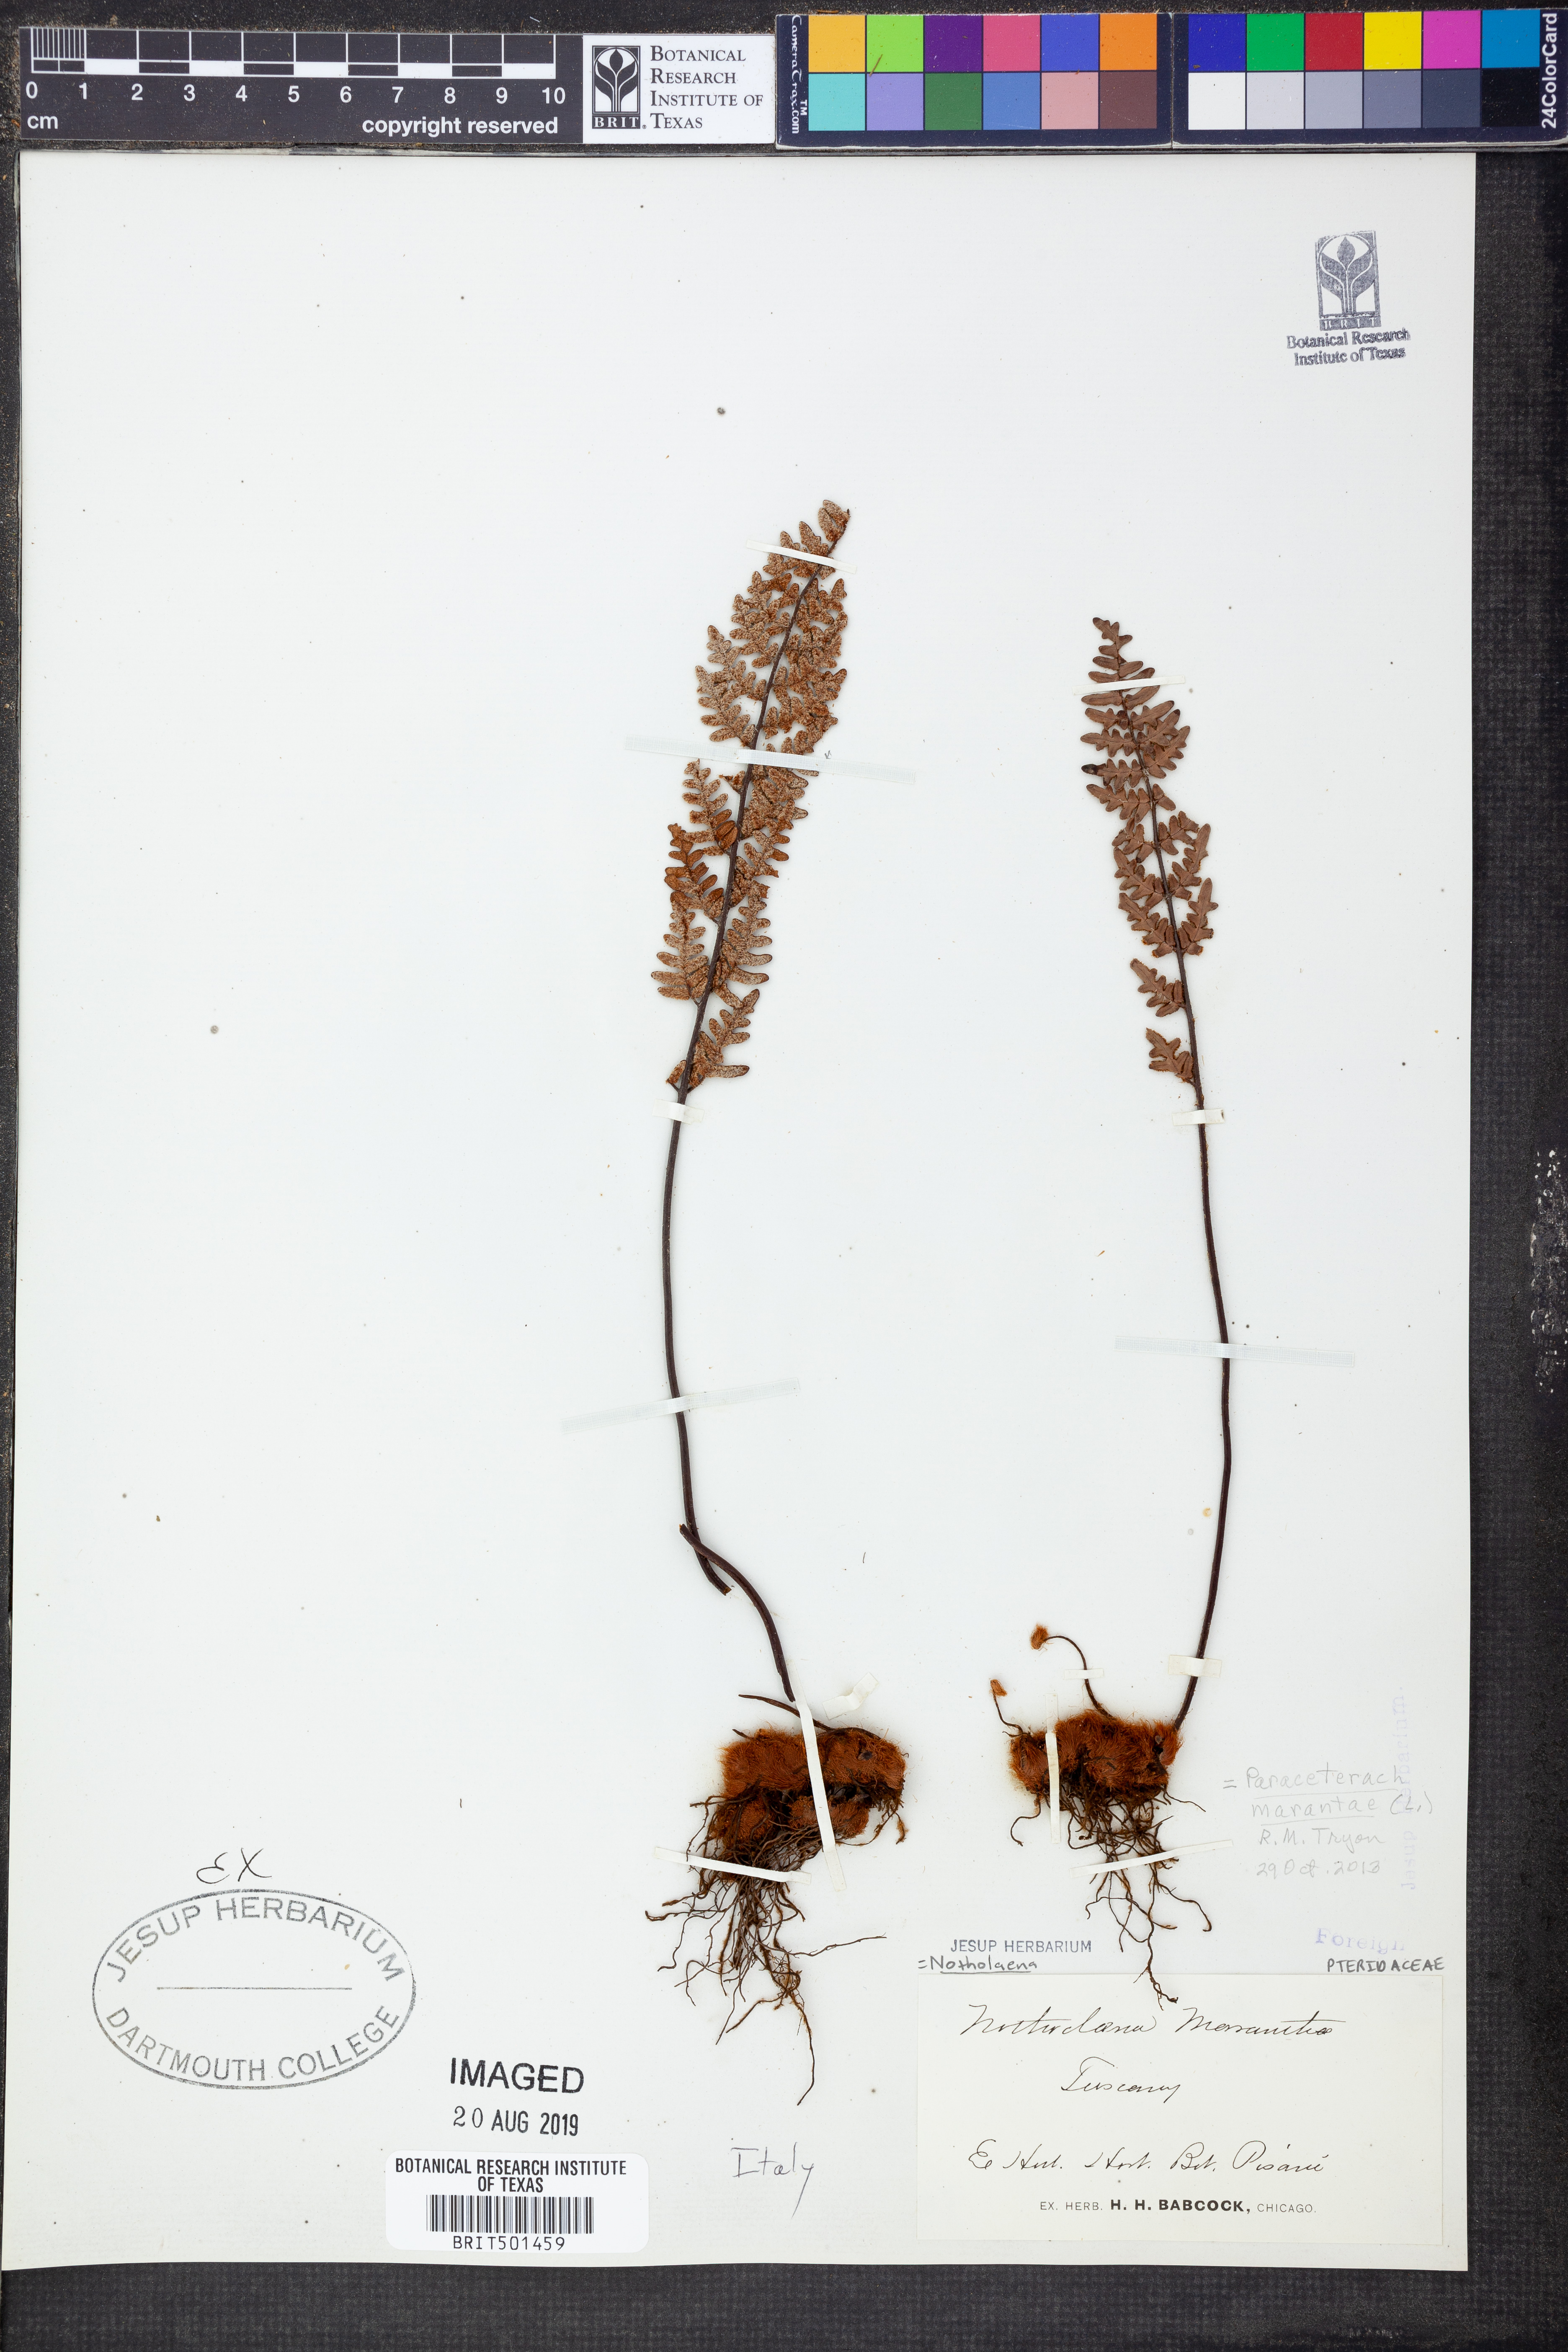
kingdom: Plantae
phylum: Tracheophyta
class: Polypodiopsida
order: Polypodiales
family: Pteridaceae
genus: Paragymnopteris
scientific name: Paragymnopteris marantae
